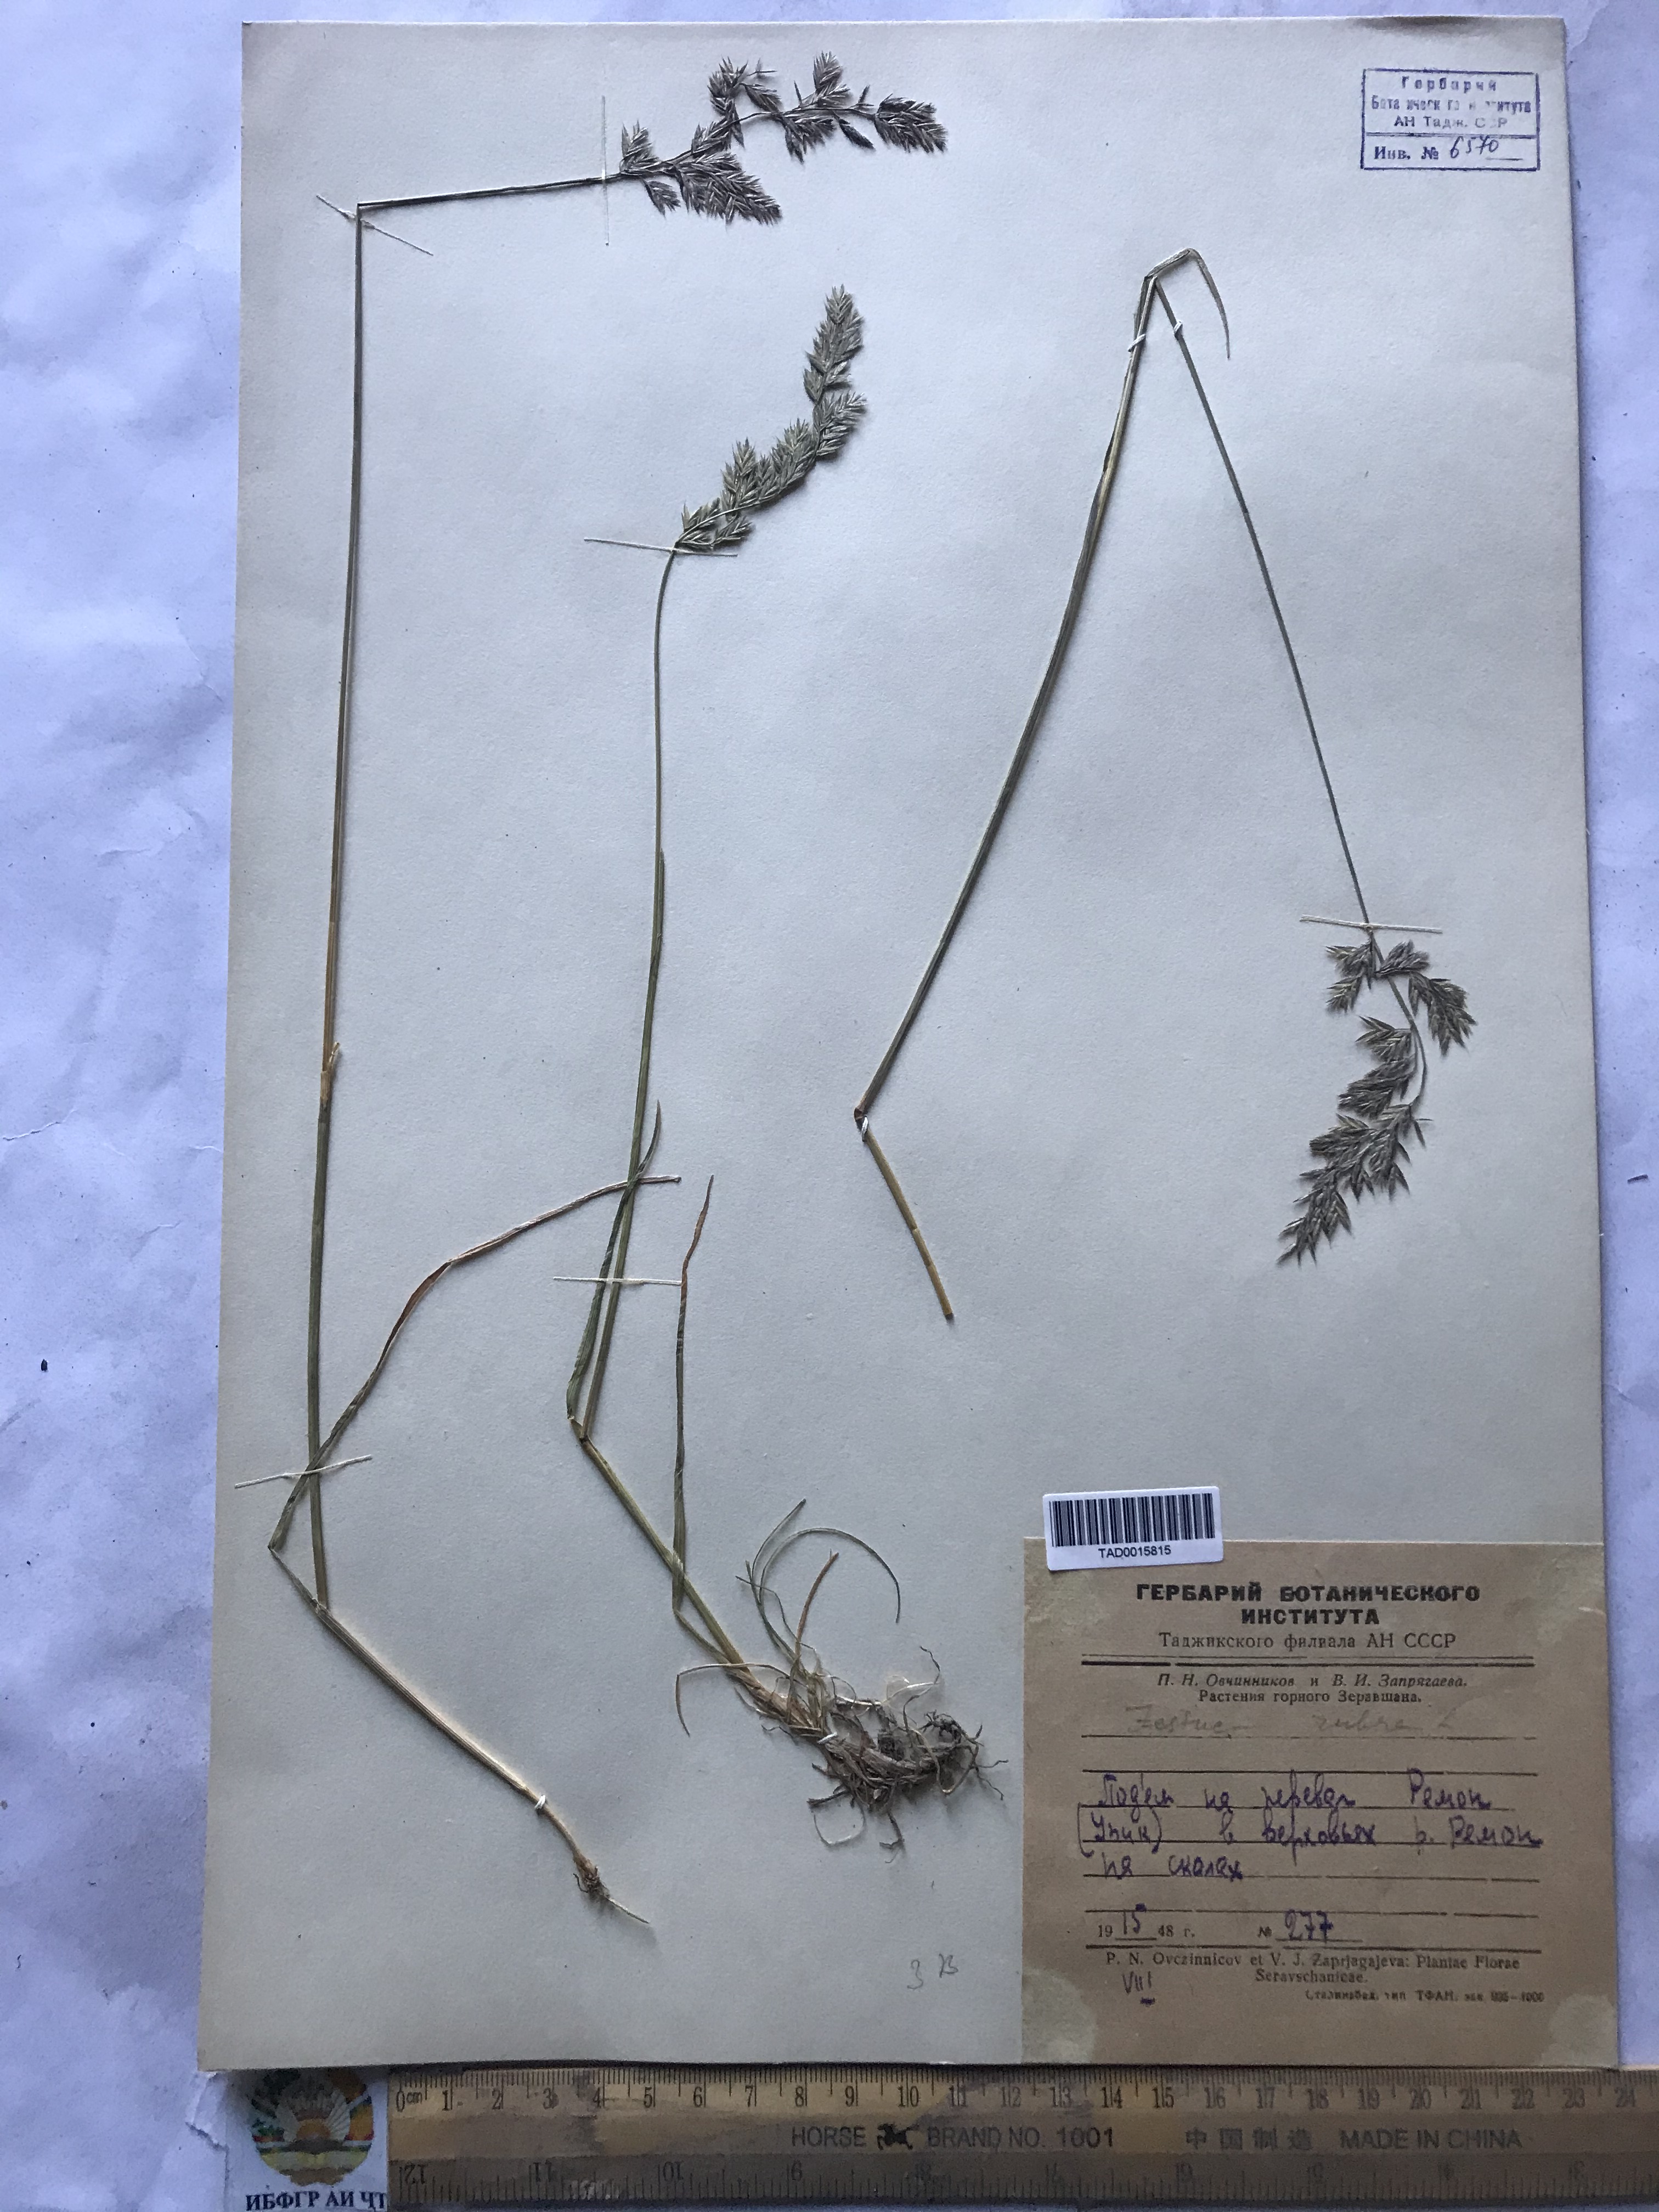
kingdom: Plantae
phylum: Tracheophyta
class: Liliopsida
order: Poales
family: Poaceae
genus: Festuca
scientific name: Festuca rubra
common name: Red fescue
